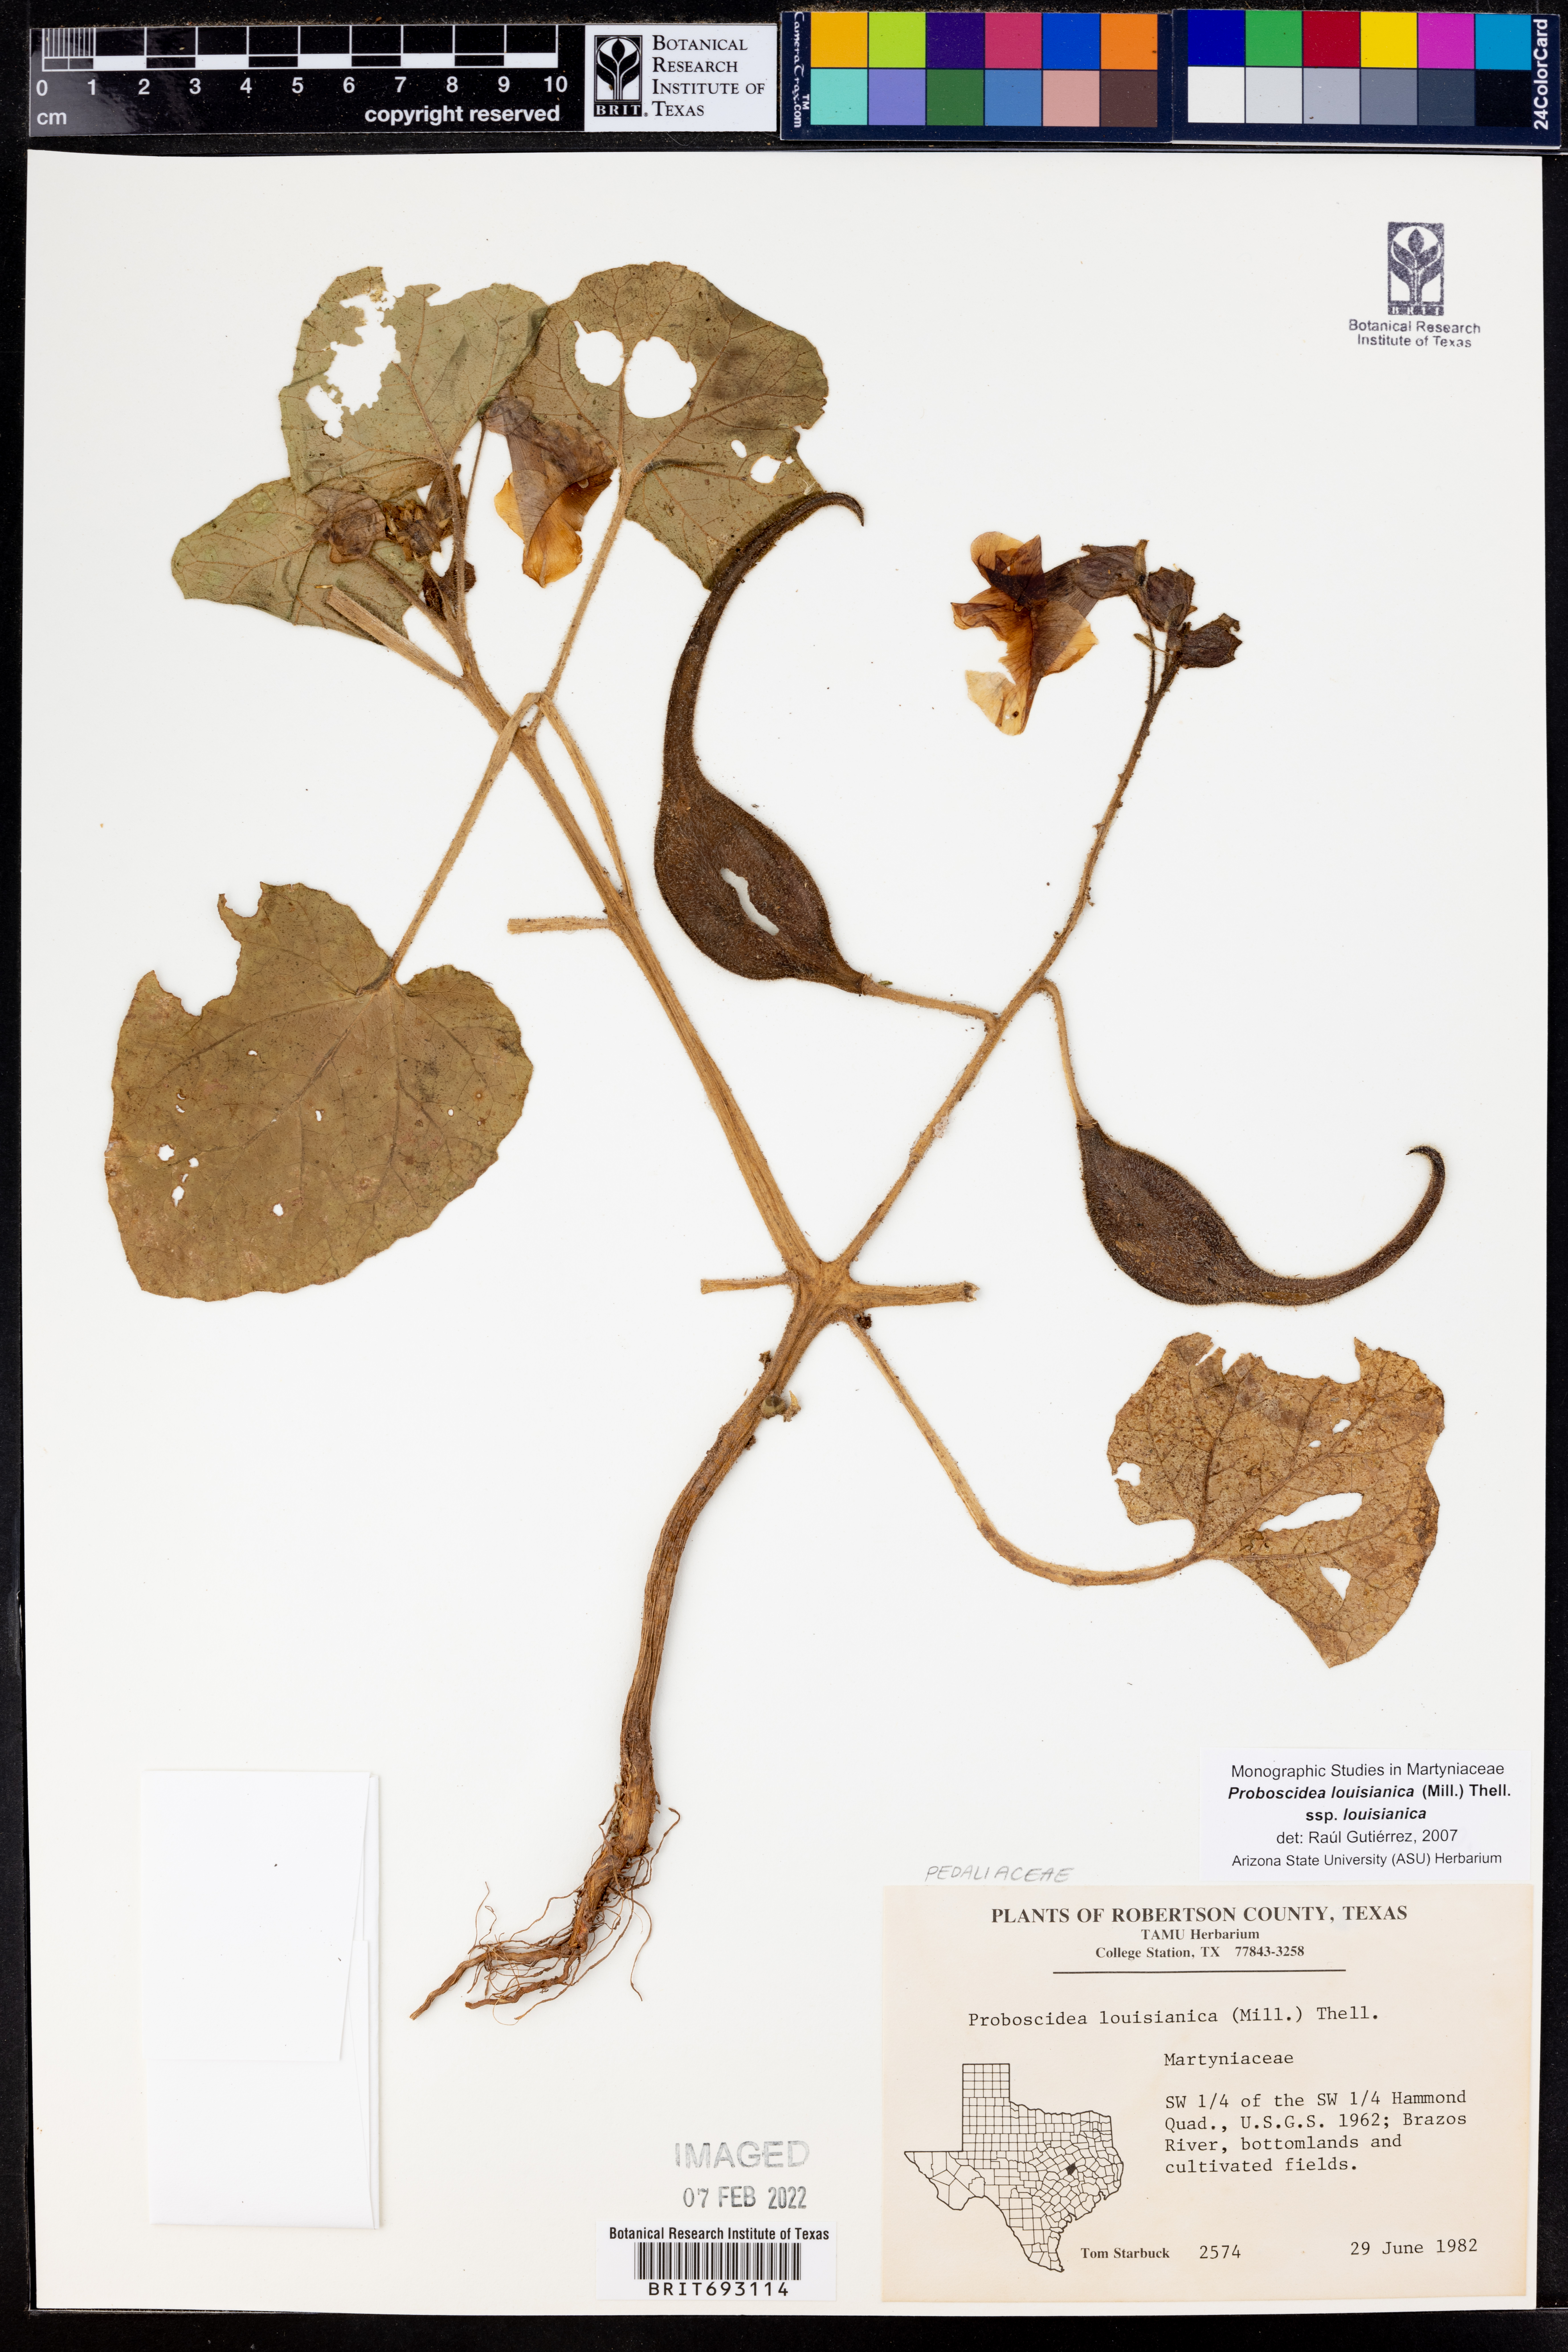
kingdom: Plantae
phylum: Tracheophyta
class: Magnoliopsida
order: Lamiales
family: Martyniaceae
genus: Proboscidea
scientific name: Proboscidea louisianica
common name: Elephant tusks
